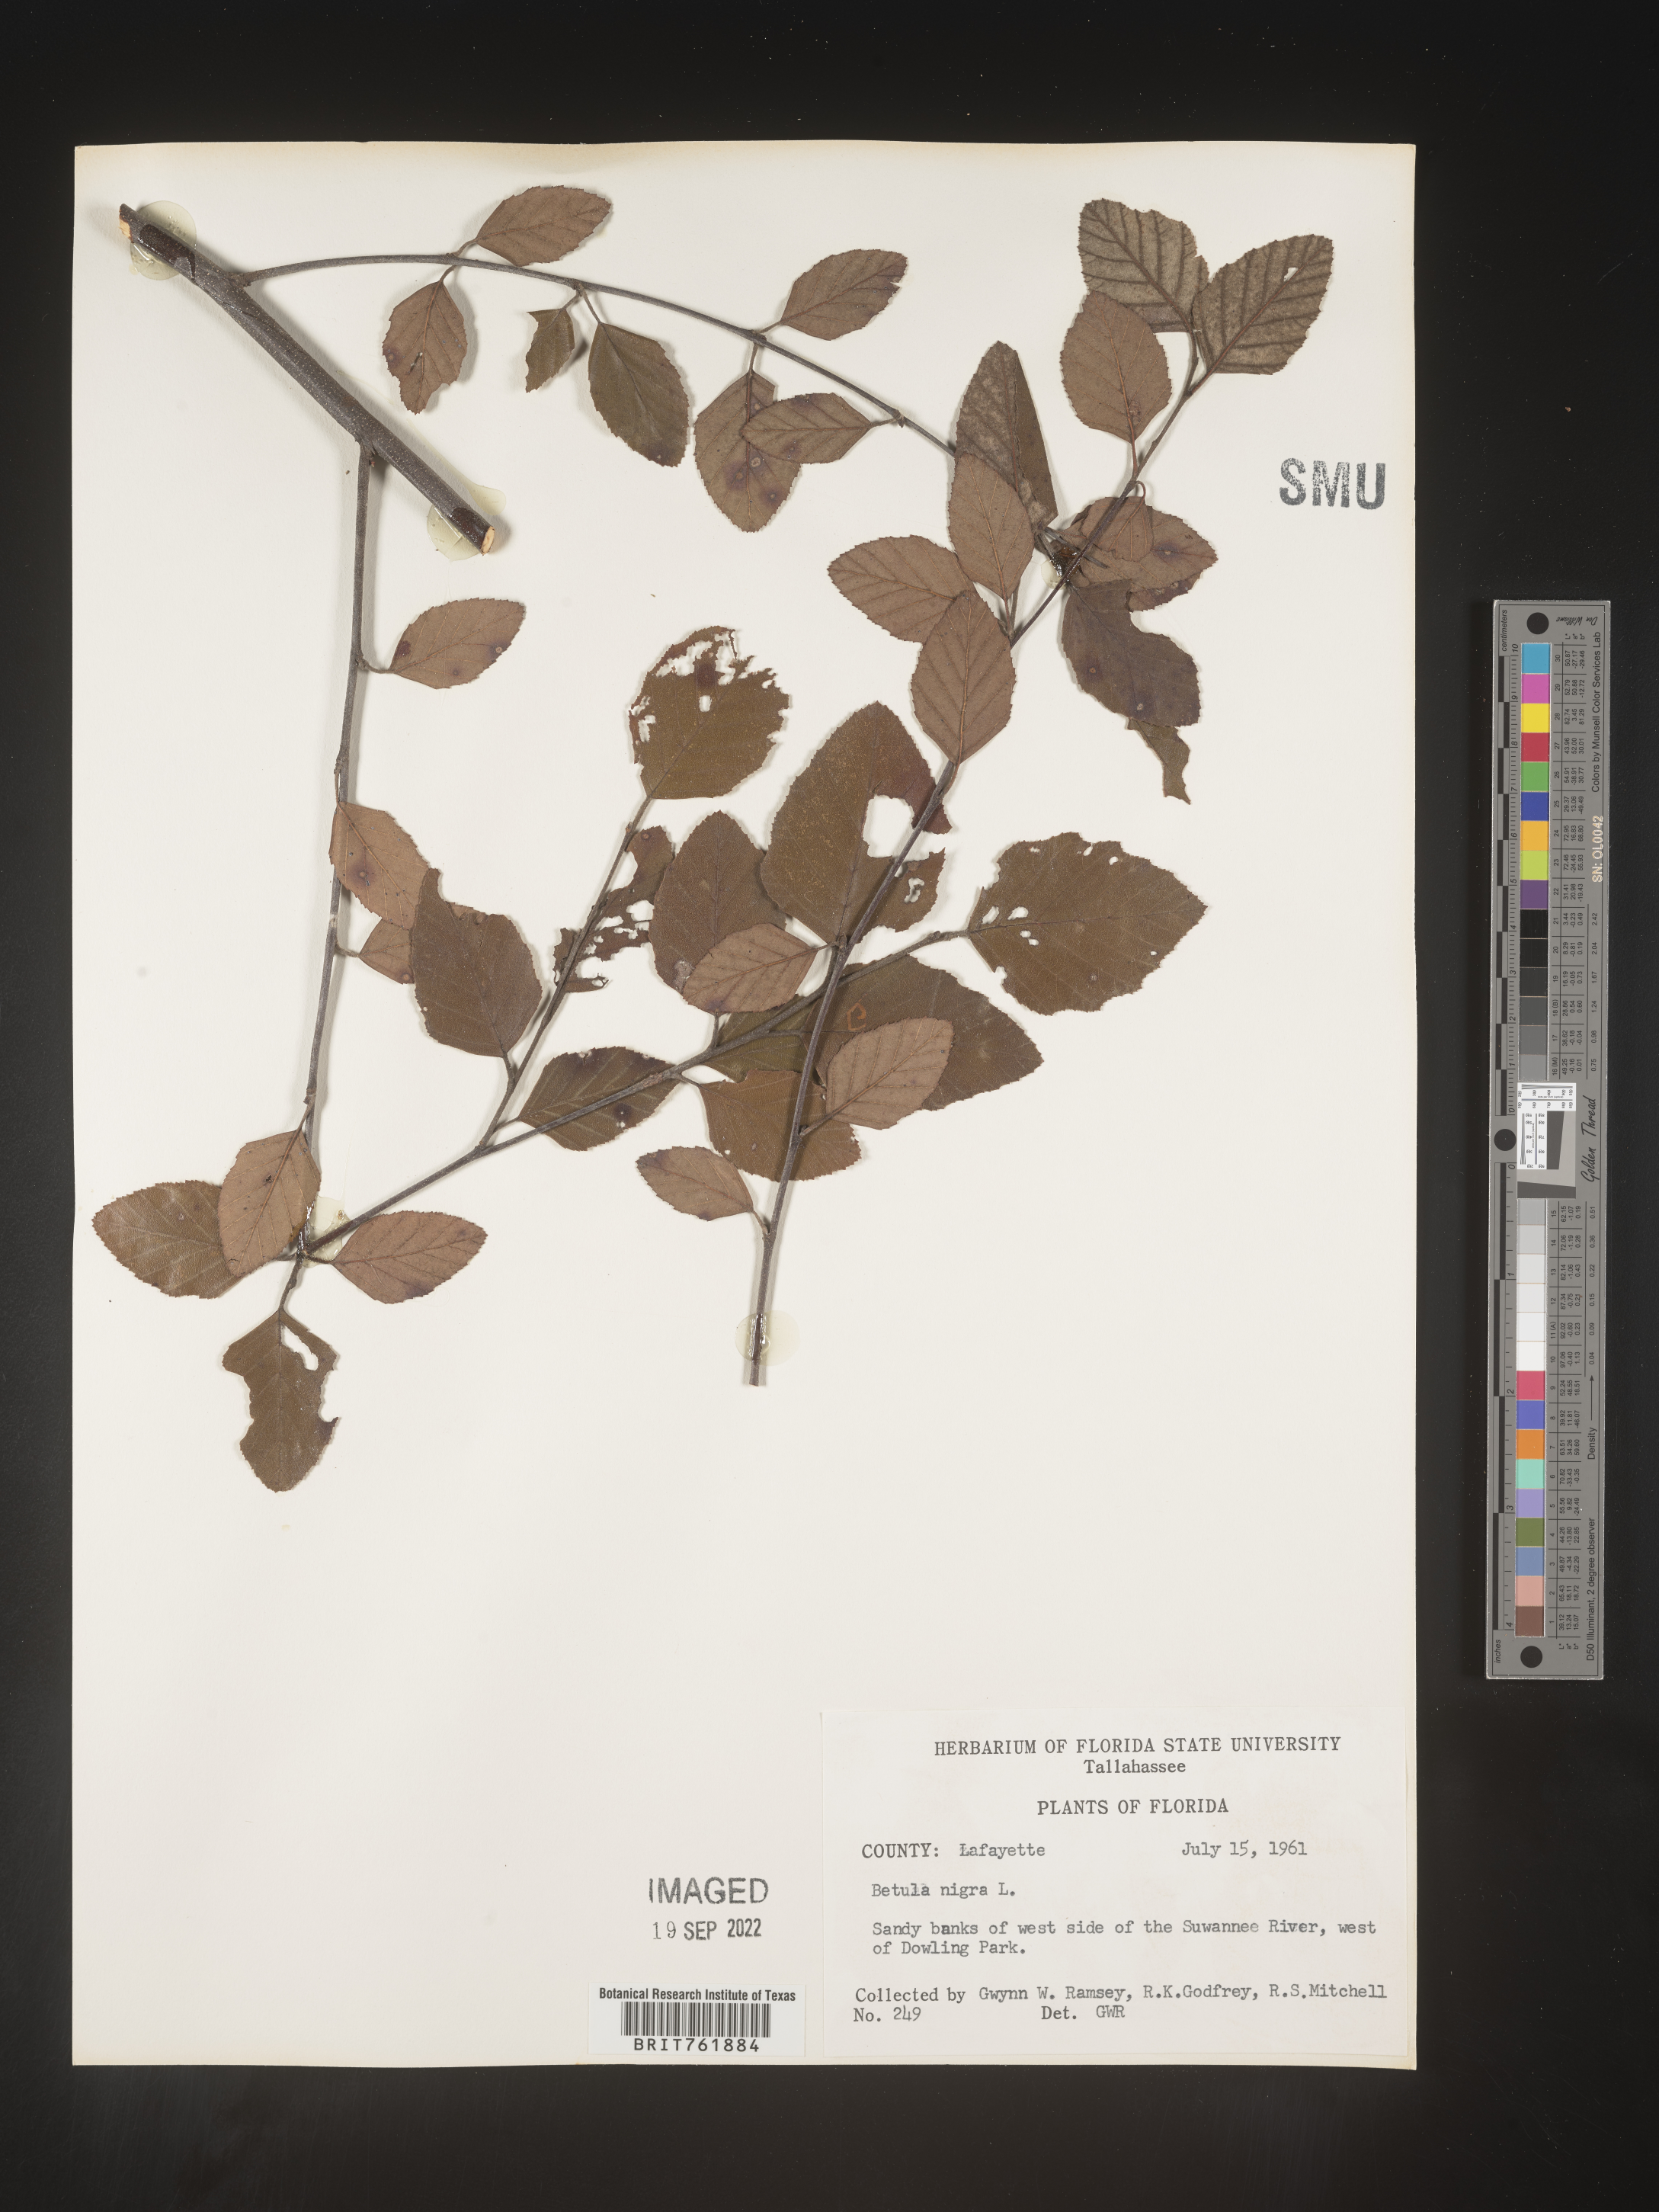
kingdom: Plantae
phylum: Tracheophyta
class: Magnoliopsida
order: Fagales
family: Betulaceae
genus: Betula
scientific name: Betula nigra
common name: Black birch
